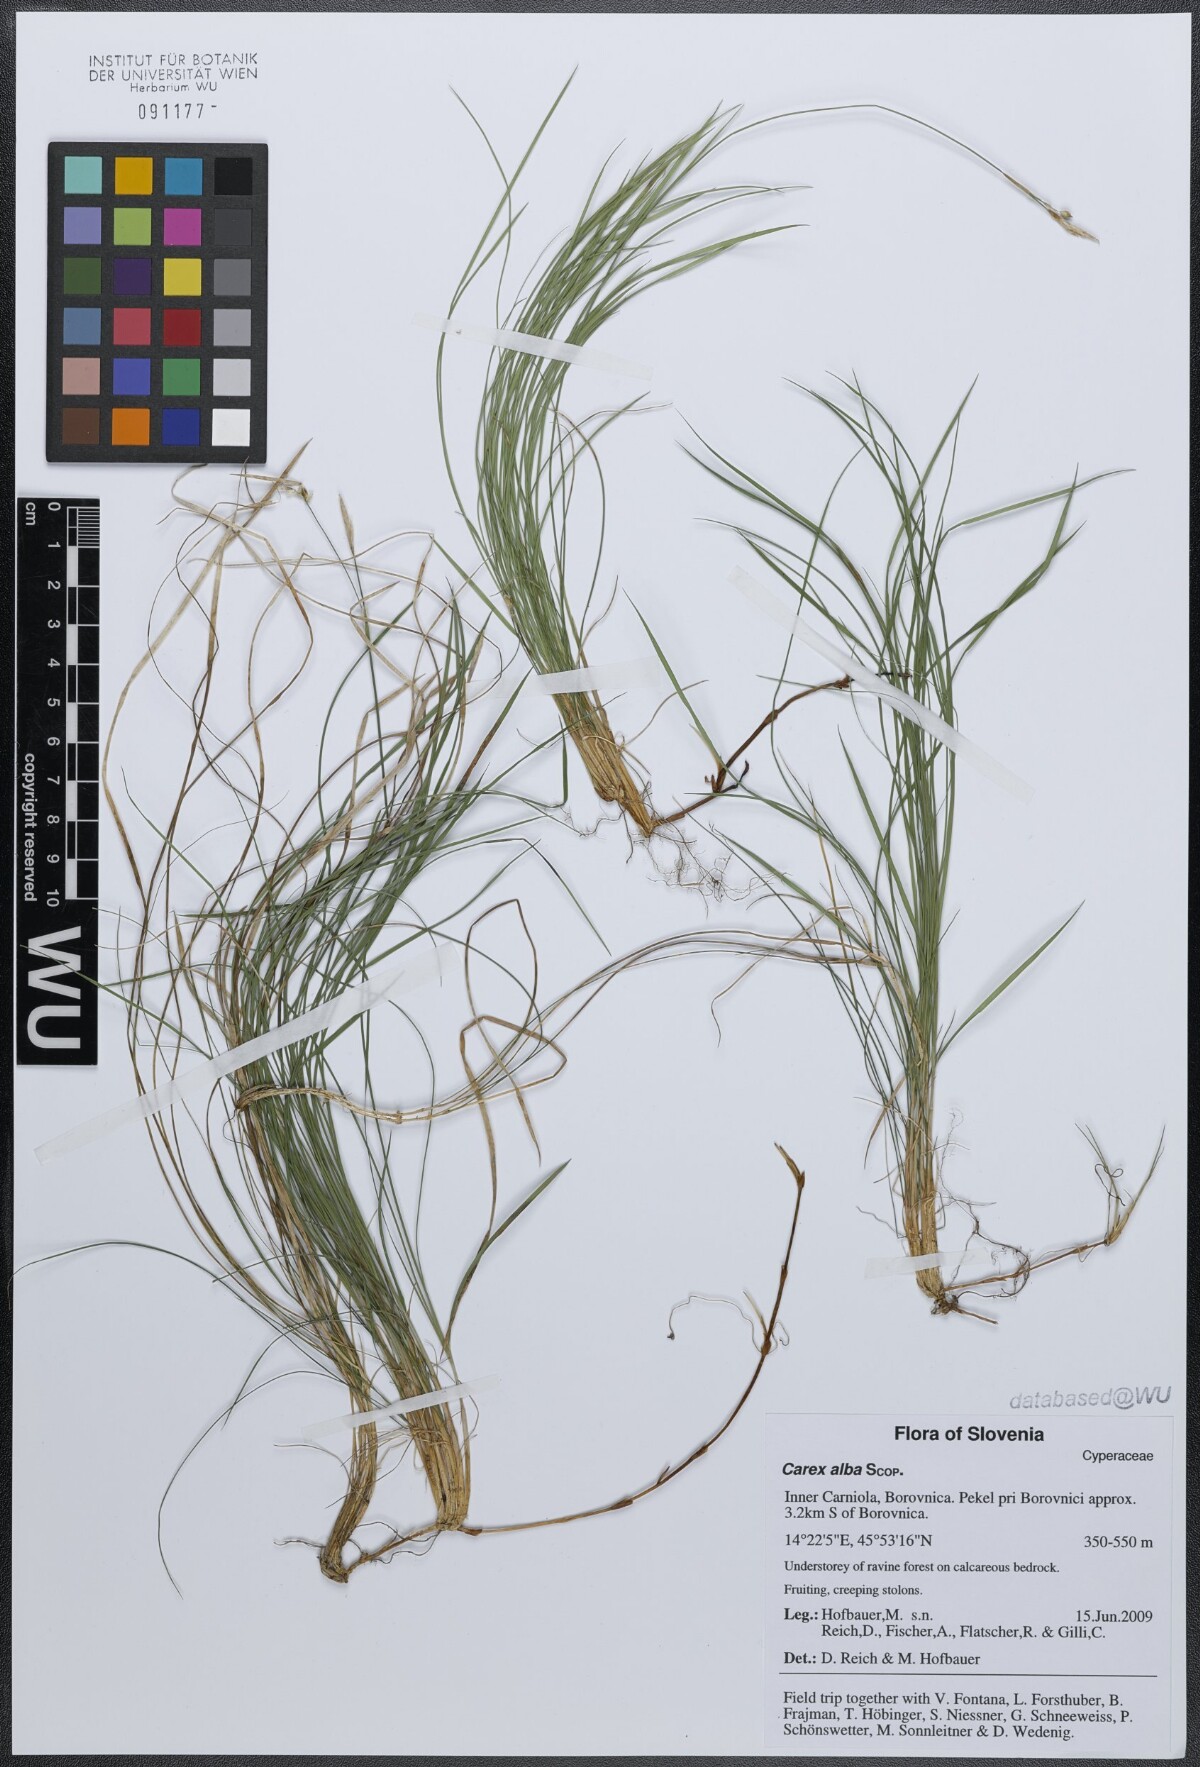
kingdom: Plantae
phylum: Tracheophyta
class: Liliopsida
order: Poales
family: Cyperaceae
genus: Carex
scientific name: Carex alba
